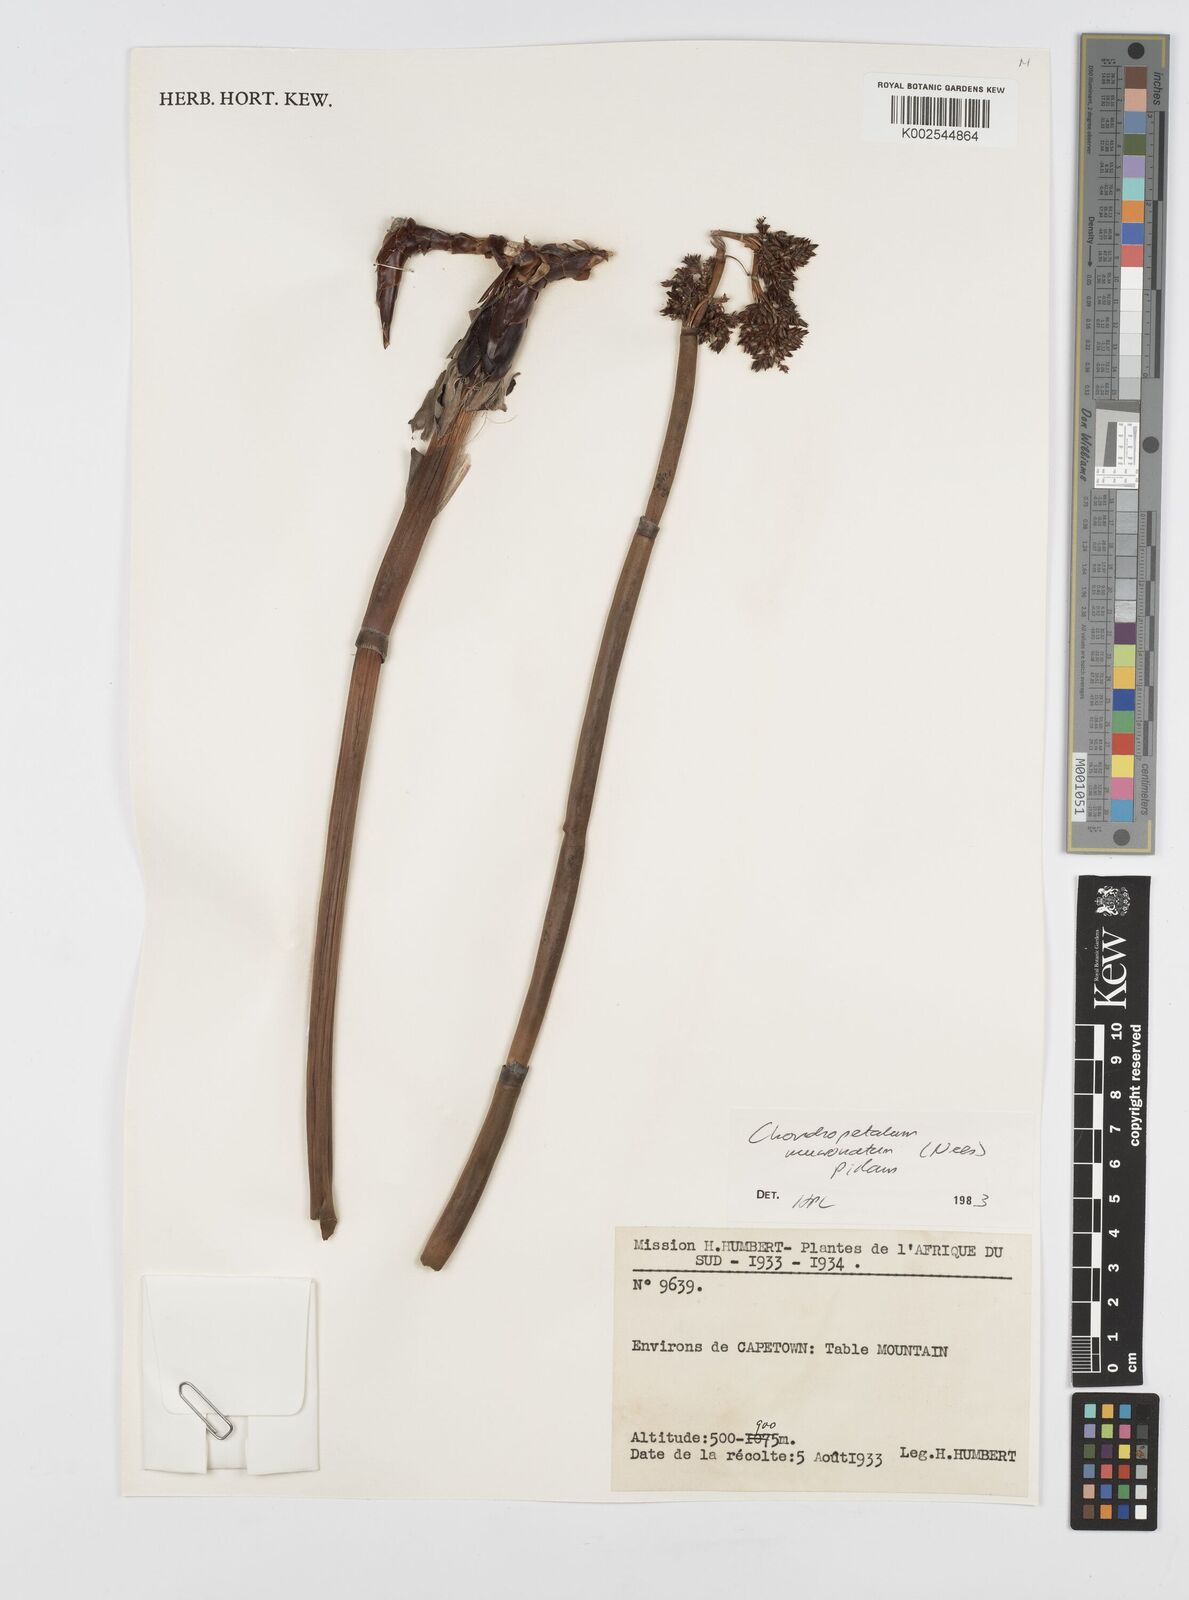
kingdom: Plantae
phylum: Tracheophyta
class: Liliopsida
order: Poales
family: Restionaceae
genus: Elegia
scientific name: Elegia mucronata
